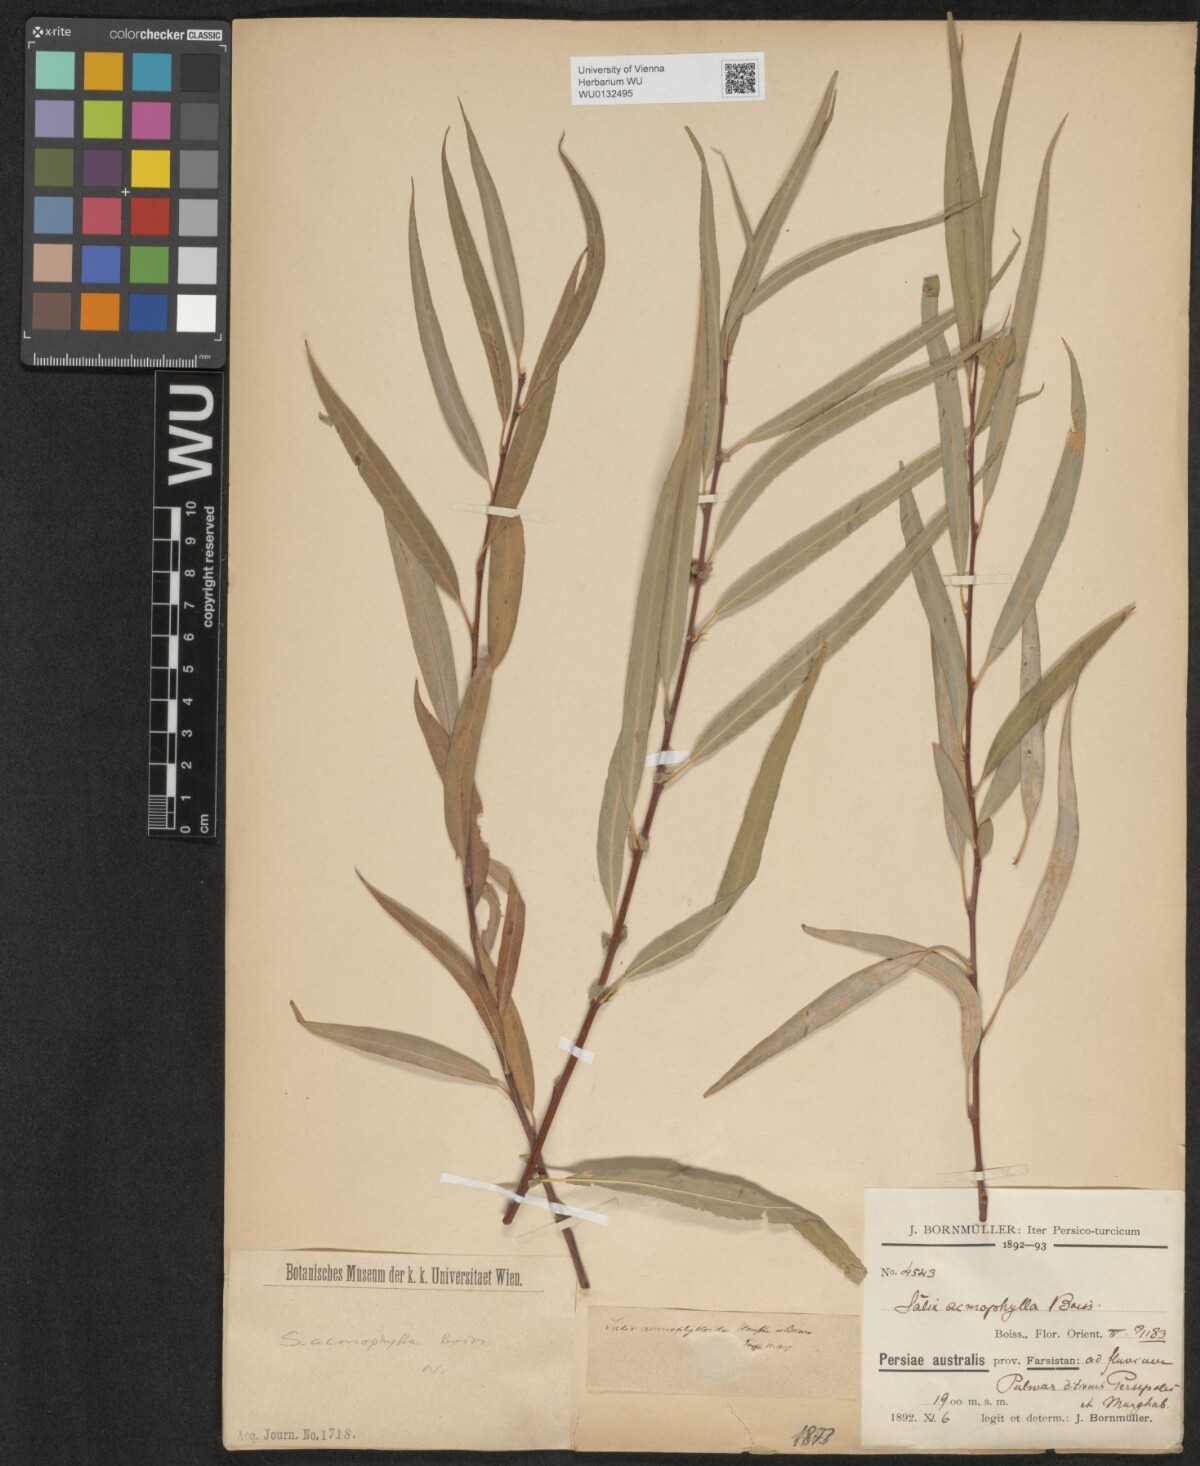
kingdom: Plantae
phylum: Tracheophyta
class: Magnoliopsida
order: Malpighiales
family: Salicaceae
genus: Salix
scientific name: Salix acmophylla
